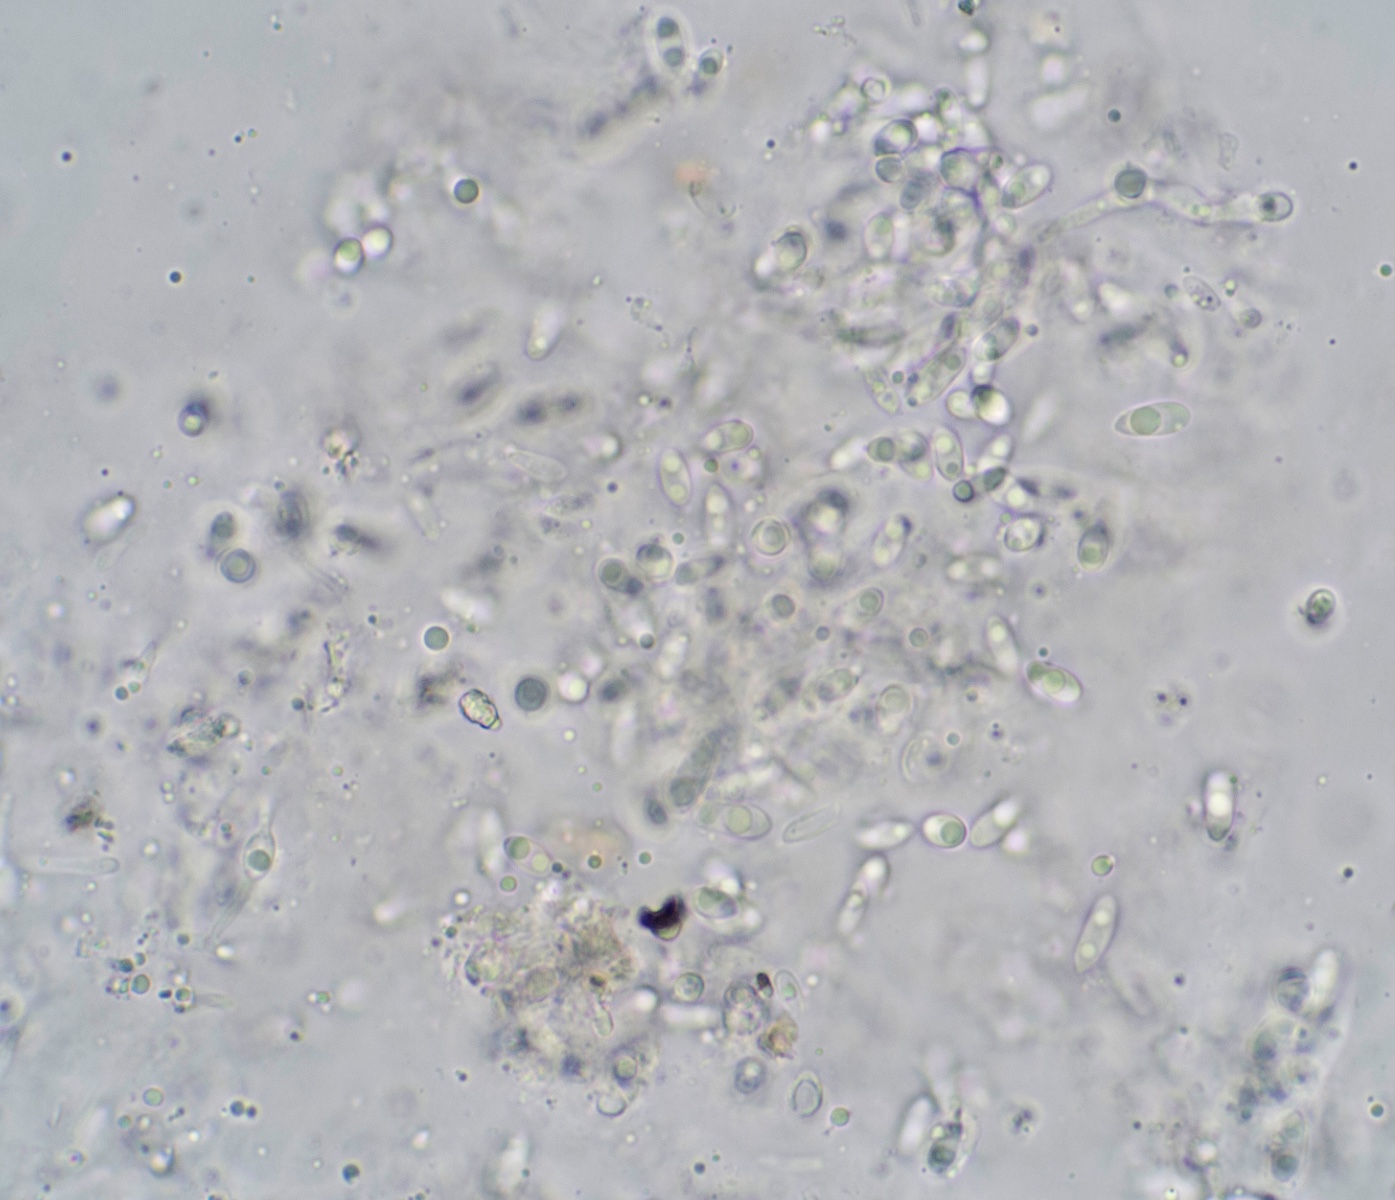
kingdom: Fungi
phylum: Ascomycota
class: Sordariomycetes
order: Diaporthales
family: Diaporthaceae
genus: Phomopsis
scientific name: Phomopsis glandicola
